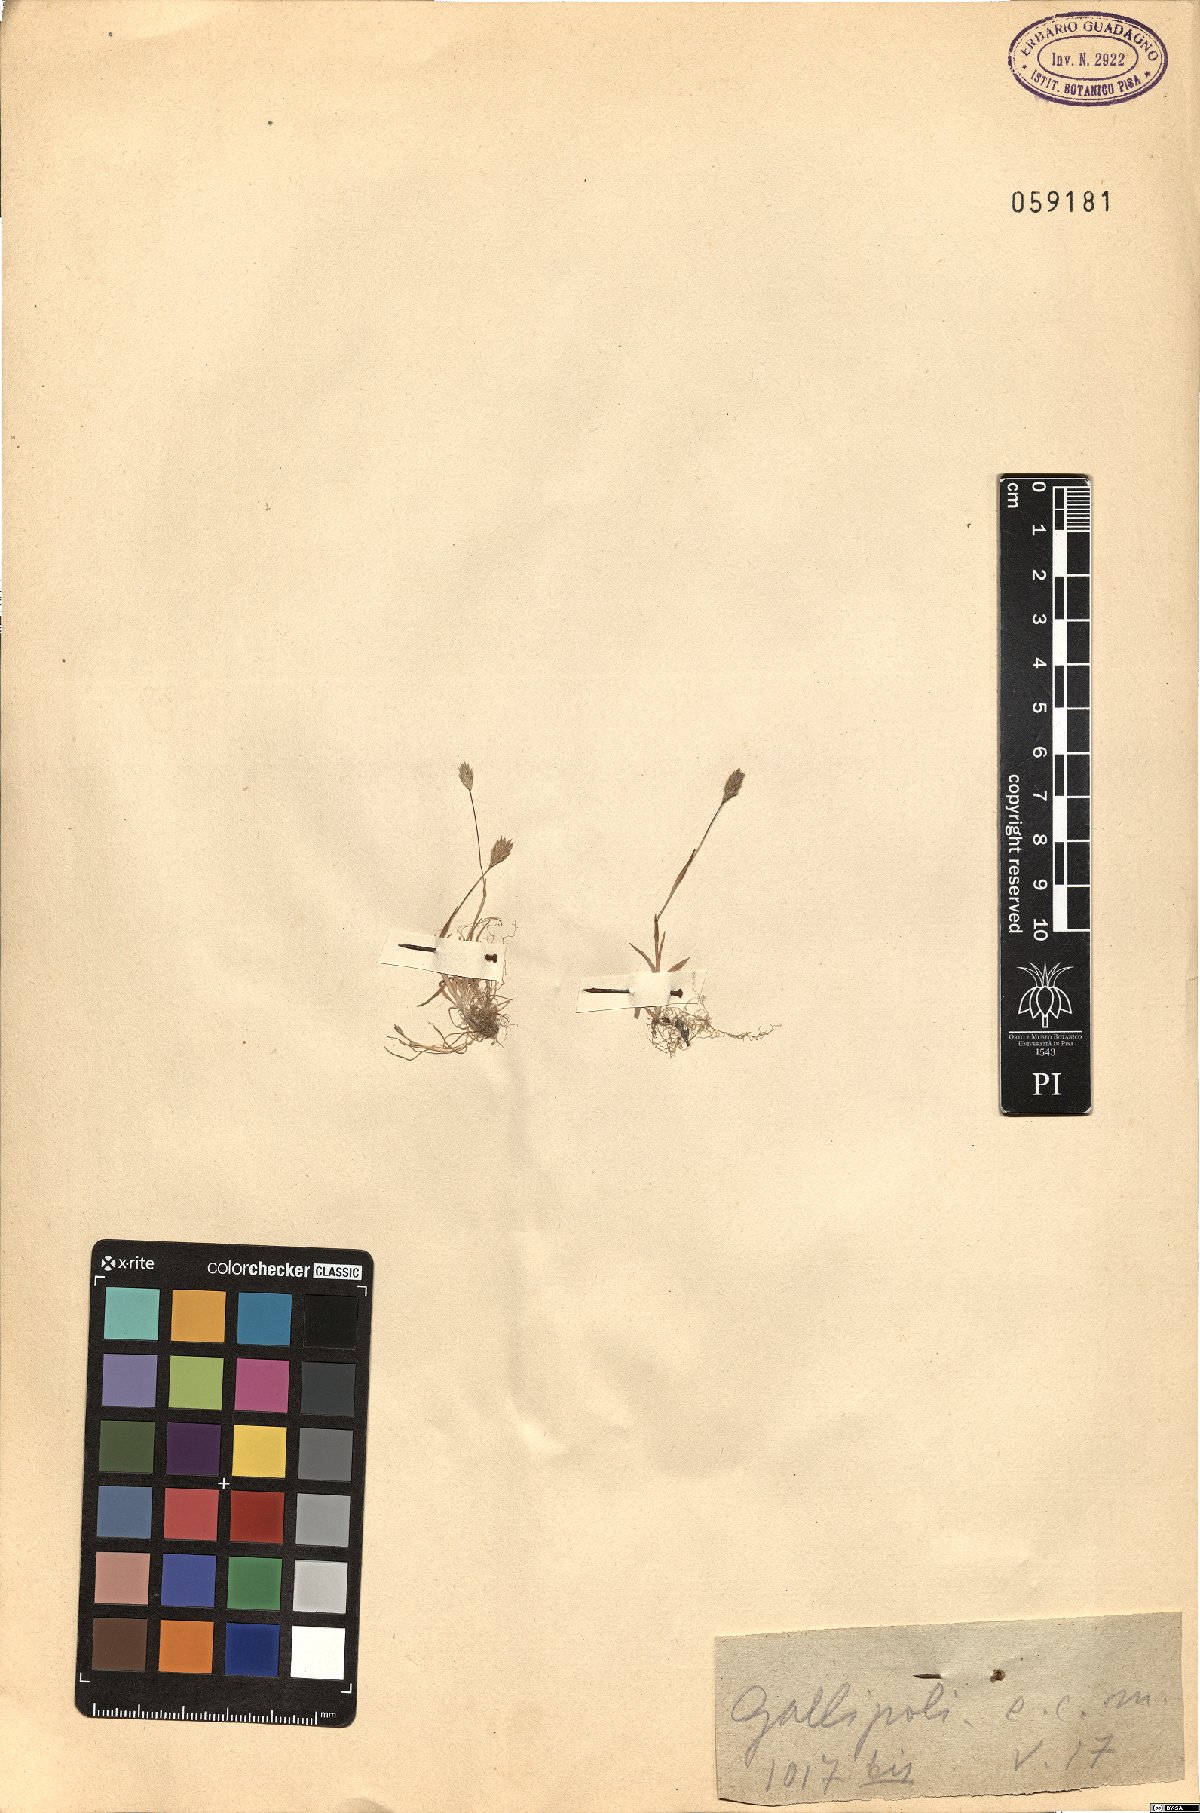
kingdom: Plantae
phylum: Tracheophyta
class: Liliopsida
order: Poales
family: Poaceae
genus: Phleum
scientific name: Phleum
